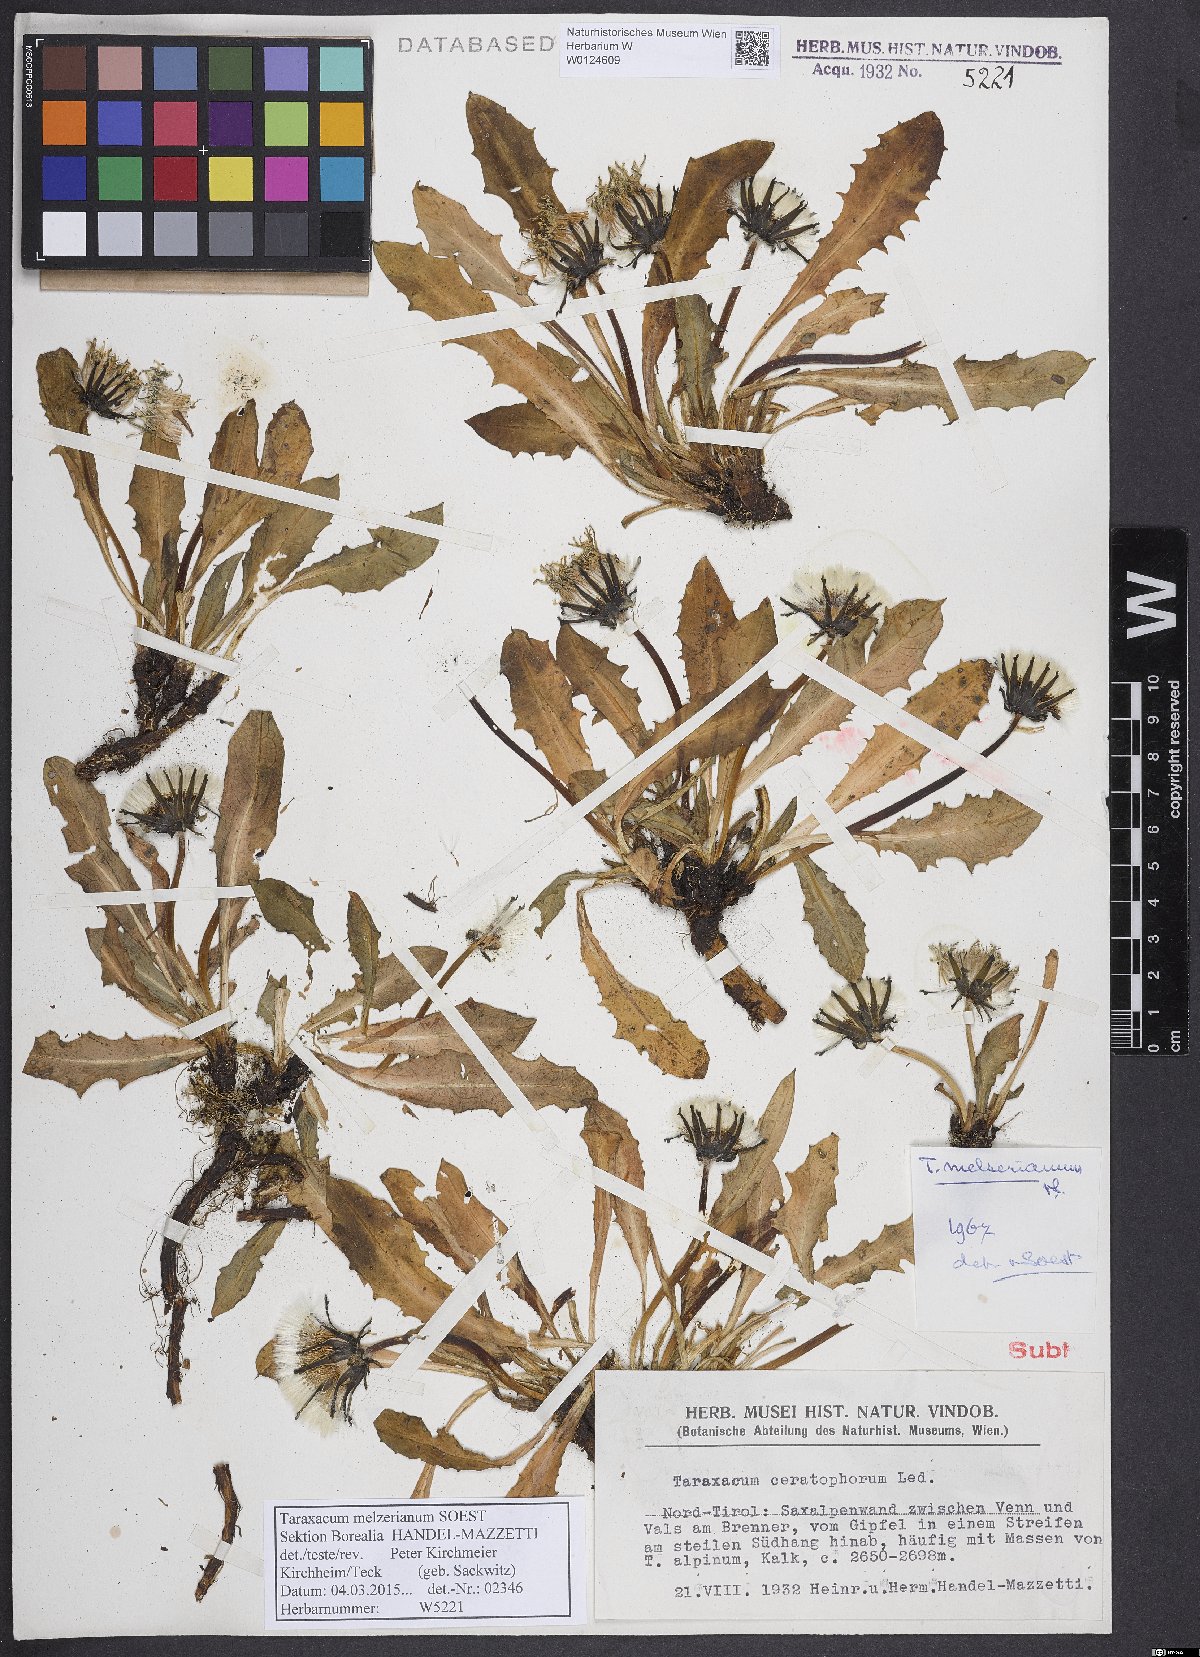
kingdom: Plantae
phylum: Tracheophyta
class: Magnoliopsida
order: Asterales
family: Asteraceae
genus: Taraxacum
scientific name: Taraxacum melzerianum
